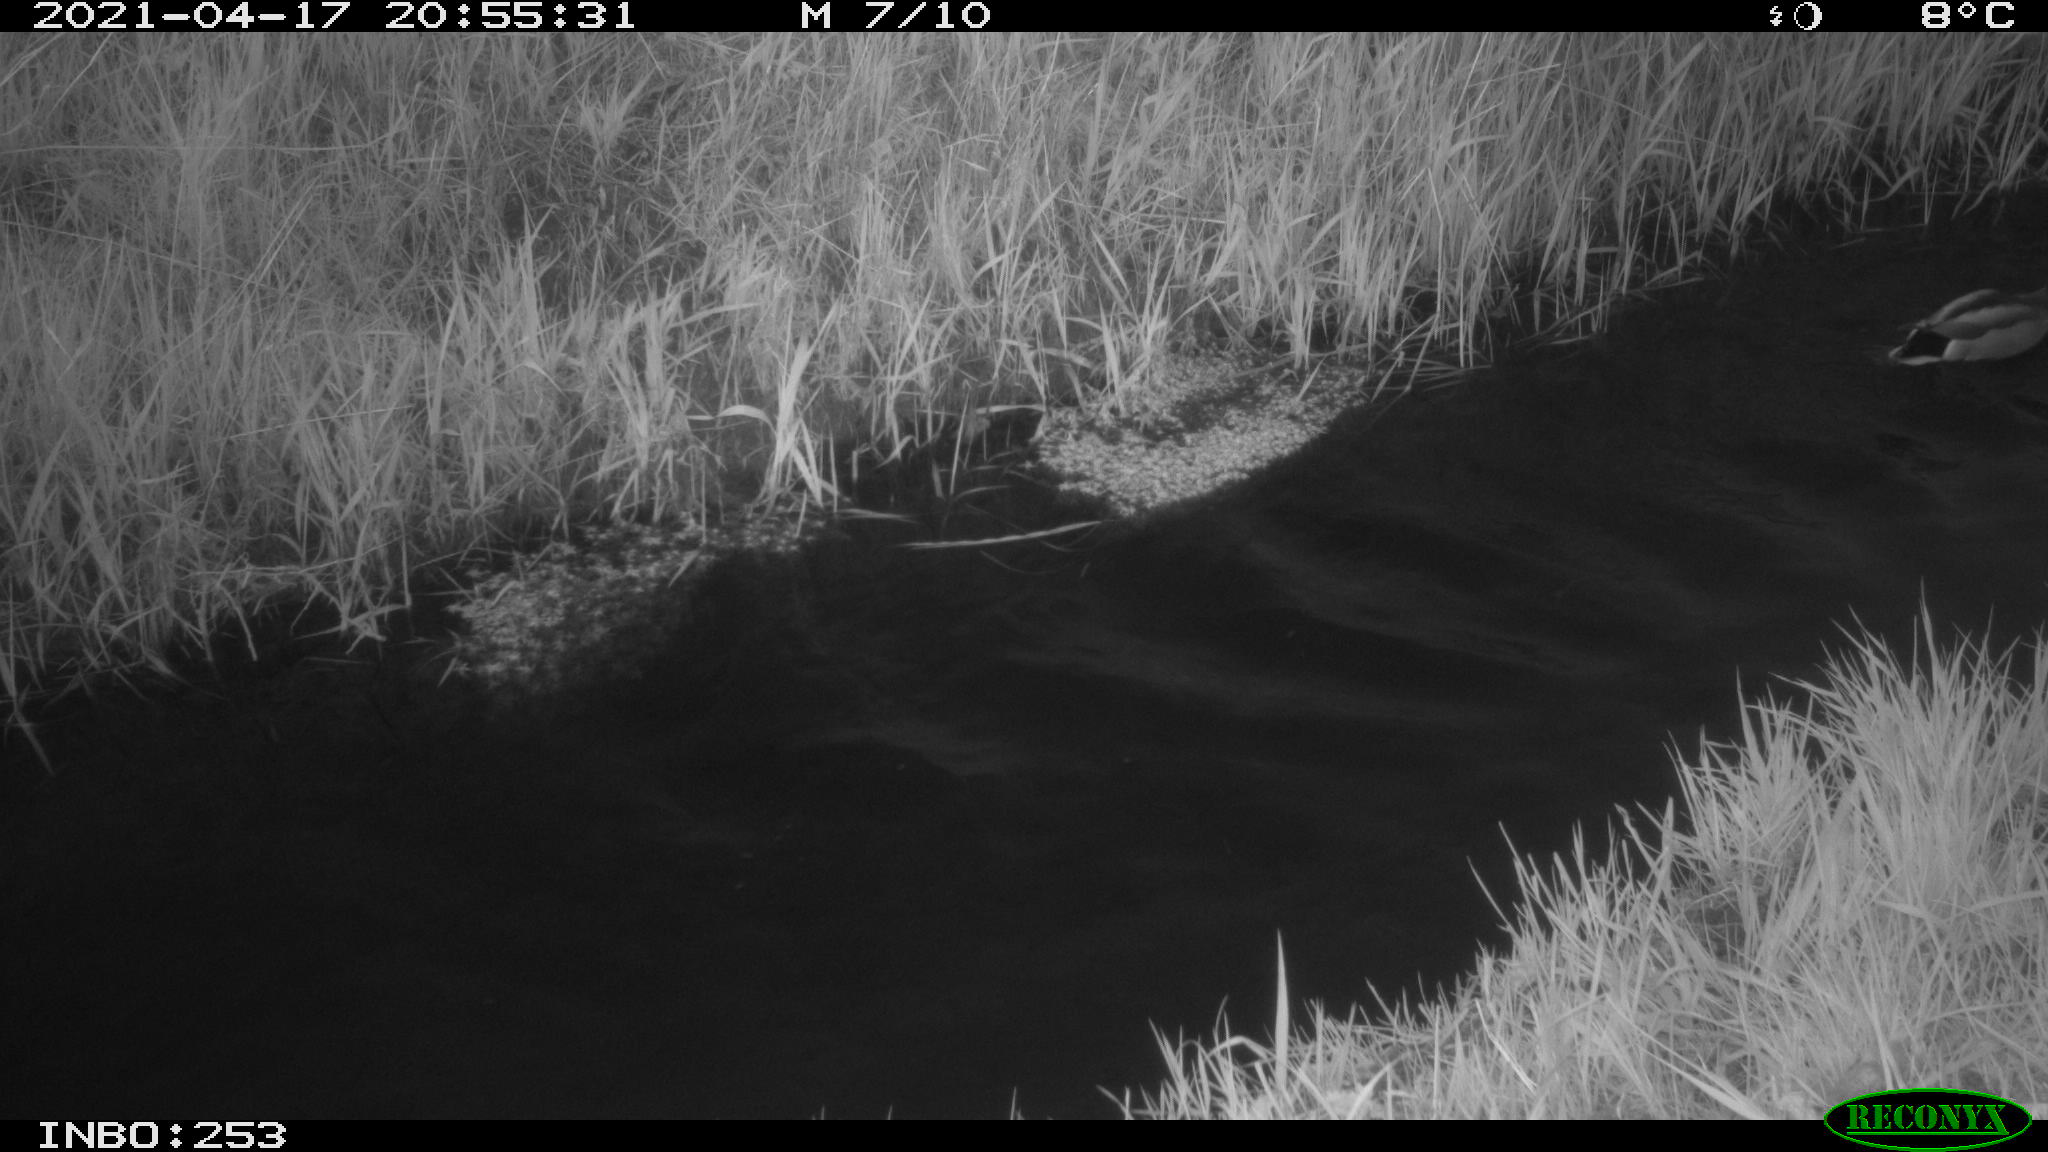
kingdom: Animalia
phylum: Chordata
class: Aves
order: Anseriformes
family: Anatidae
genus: Anas
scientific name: Anas platyrhynchos
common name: Mallard
